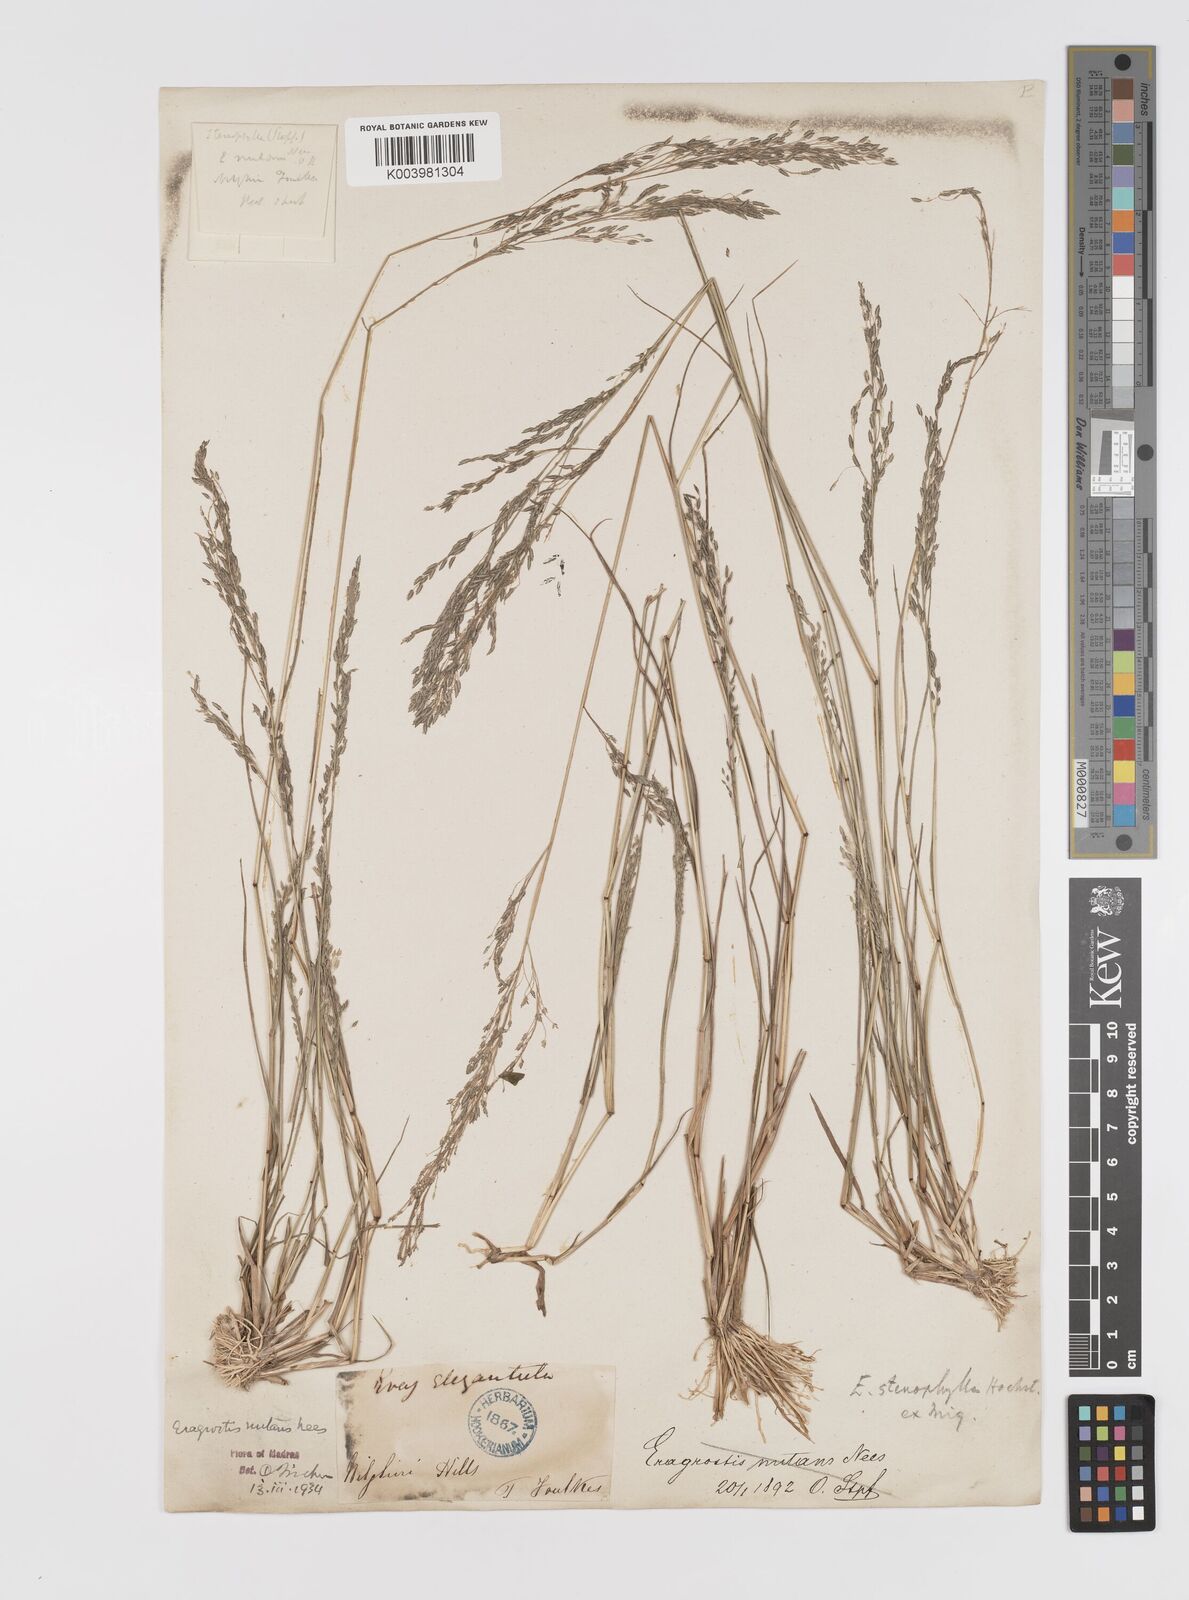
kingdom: Plantae
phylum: Tracheophyta
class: Liliopsida
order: Poales
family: Poaceae
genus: Eragrostis
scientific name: Eragrostis gangetica
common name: Slimflower lovegrass
